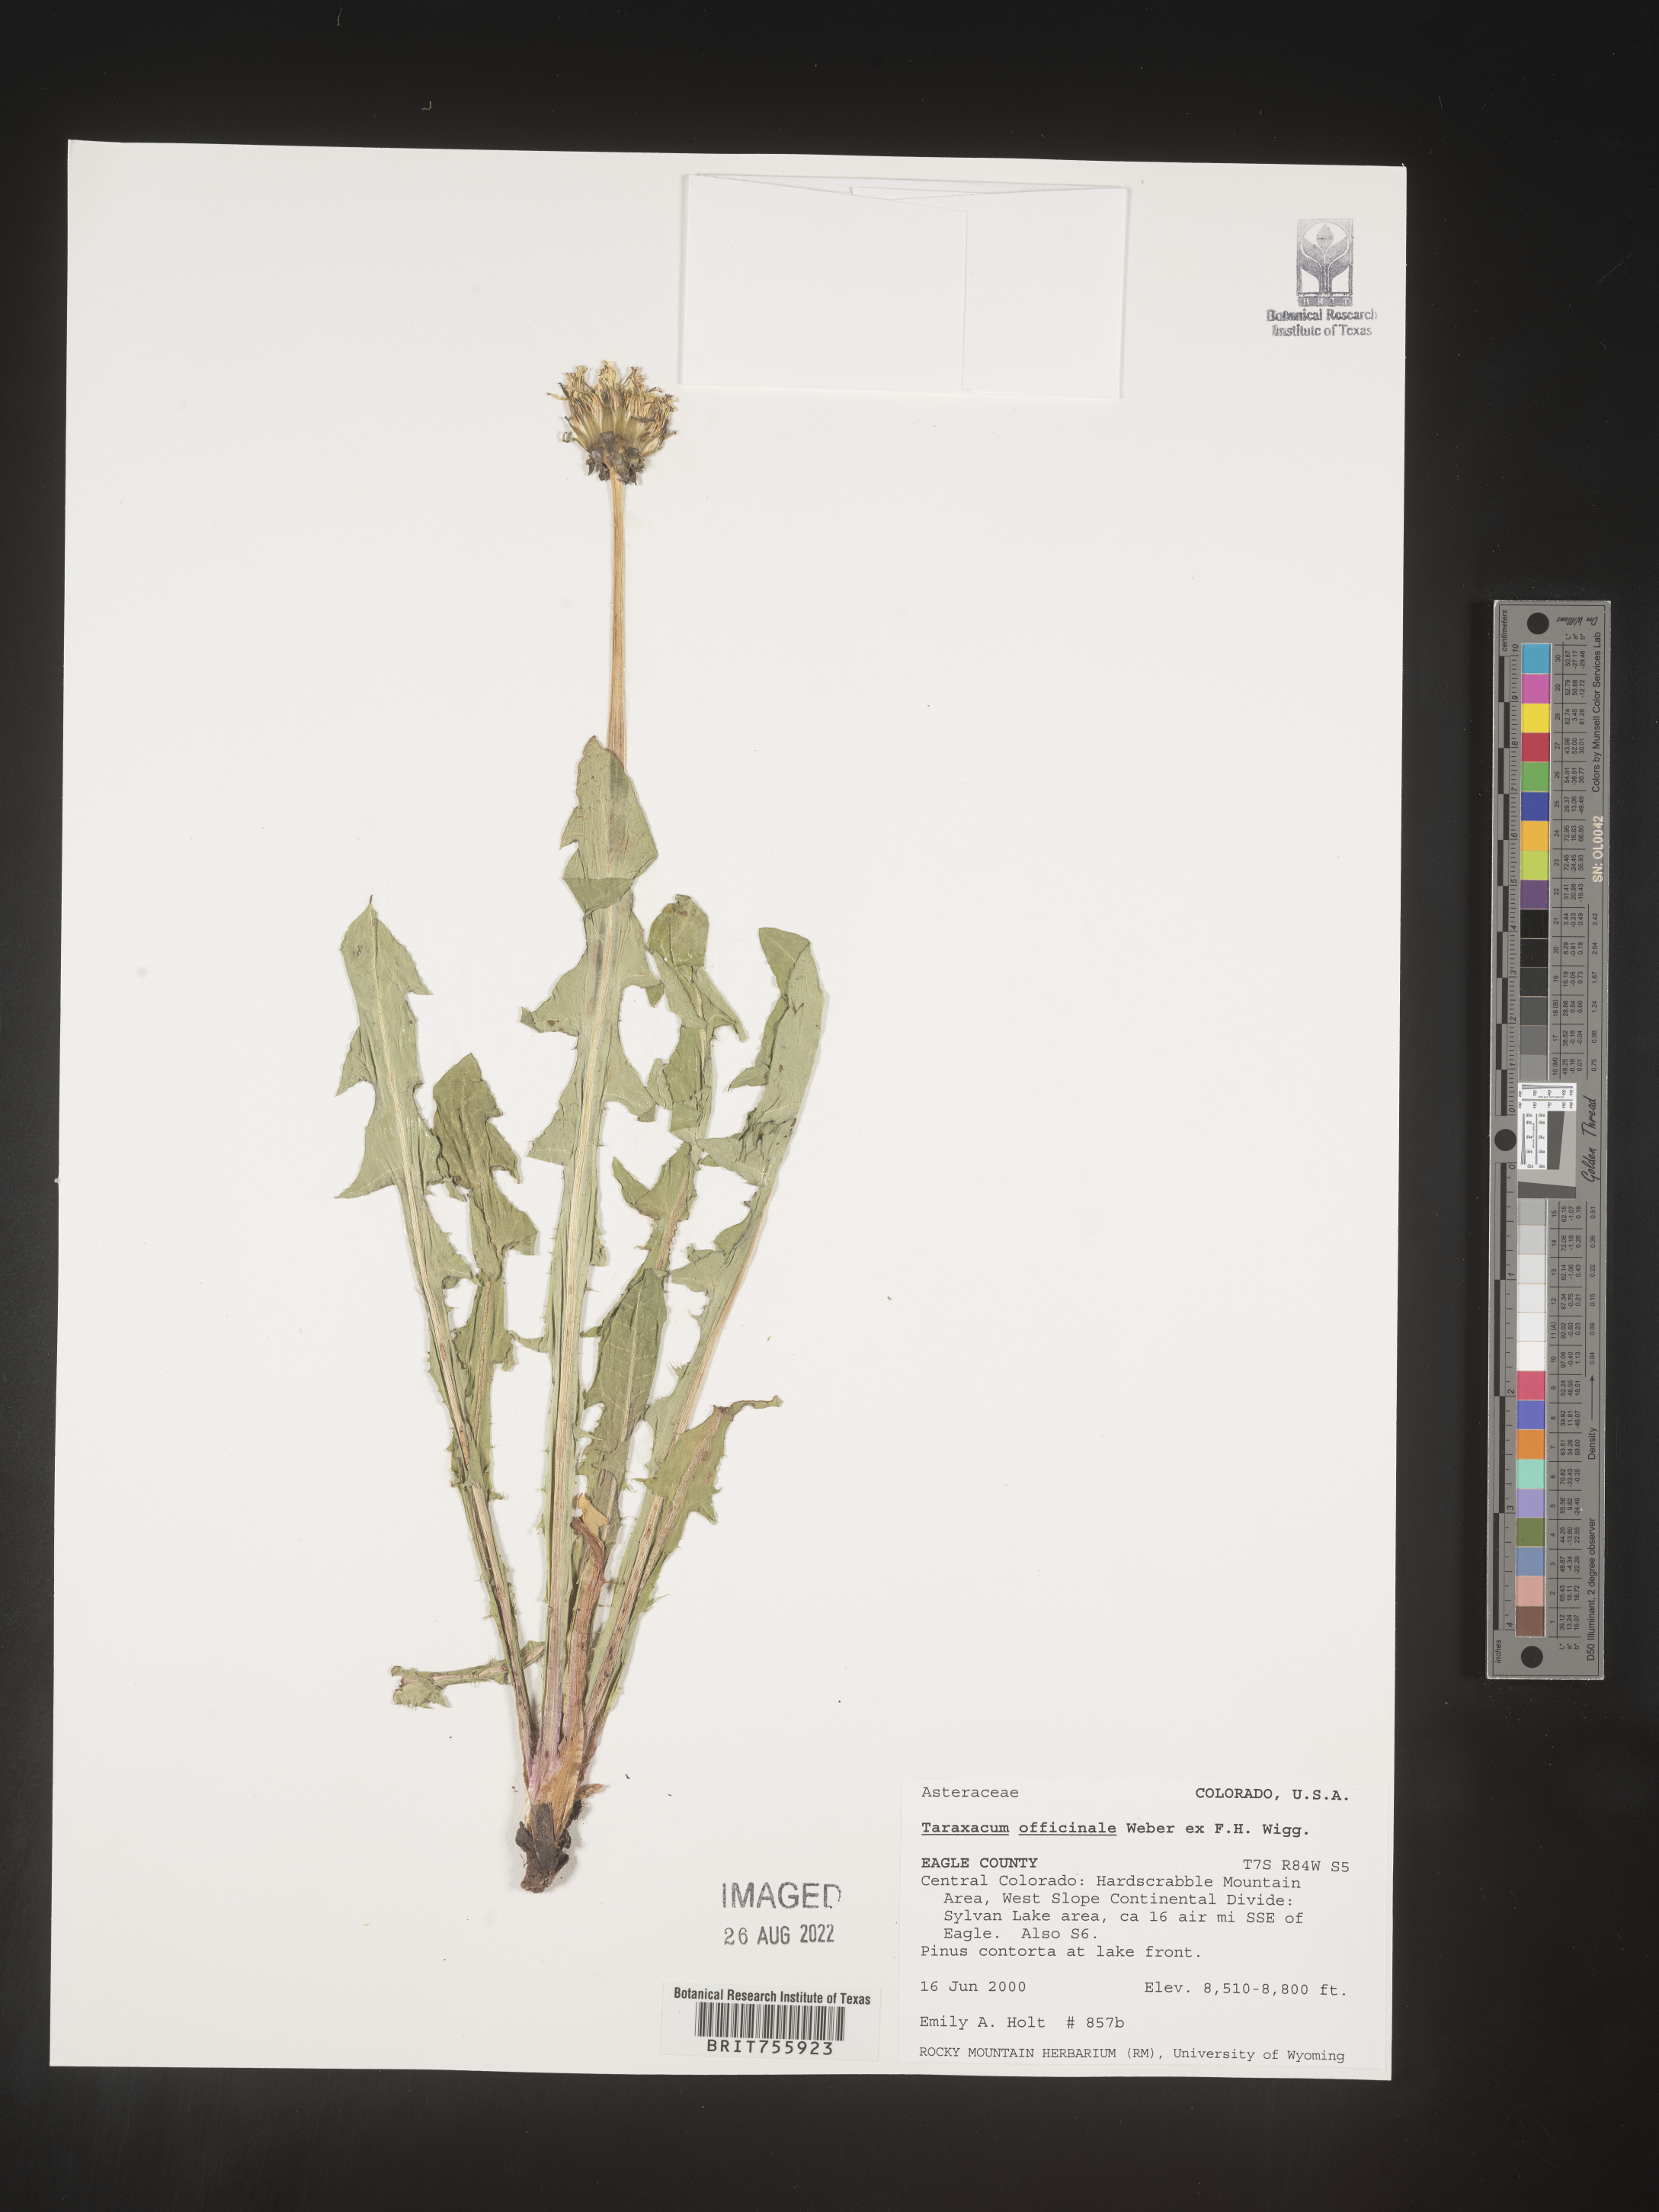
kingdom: Plantae
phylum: Tracheophyta
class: Magnoliopsida
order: Asterales
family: Asteraceae
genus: Taraxacum
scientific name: Taraxacum officinale
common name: Common dandelion
